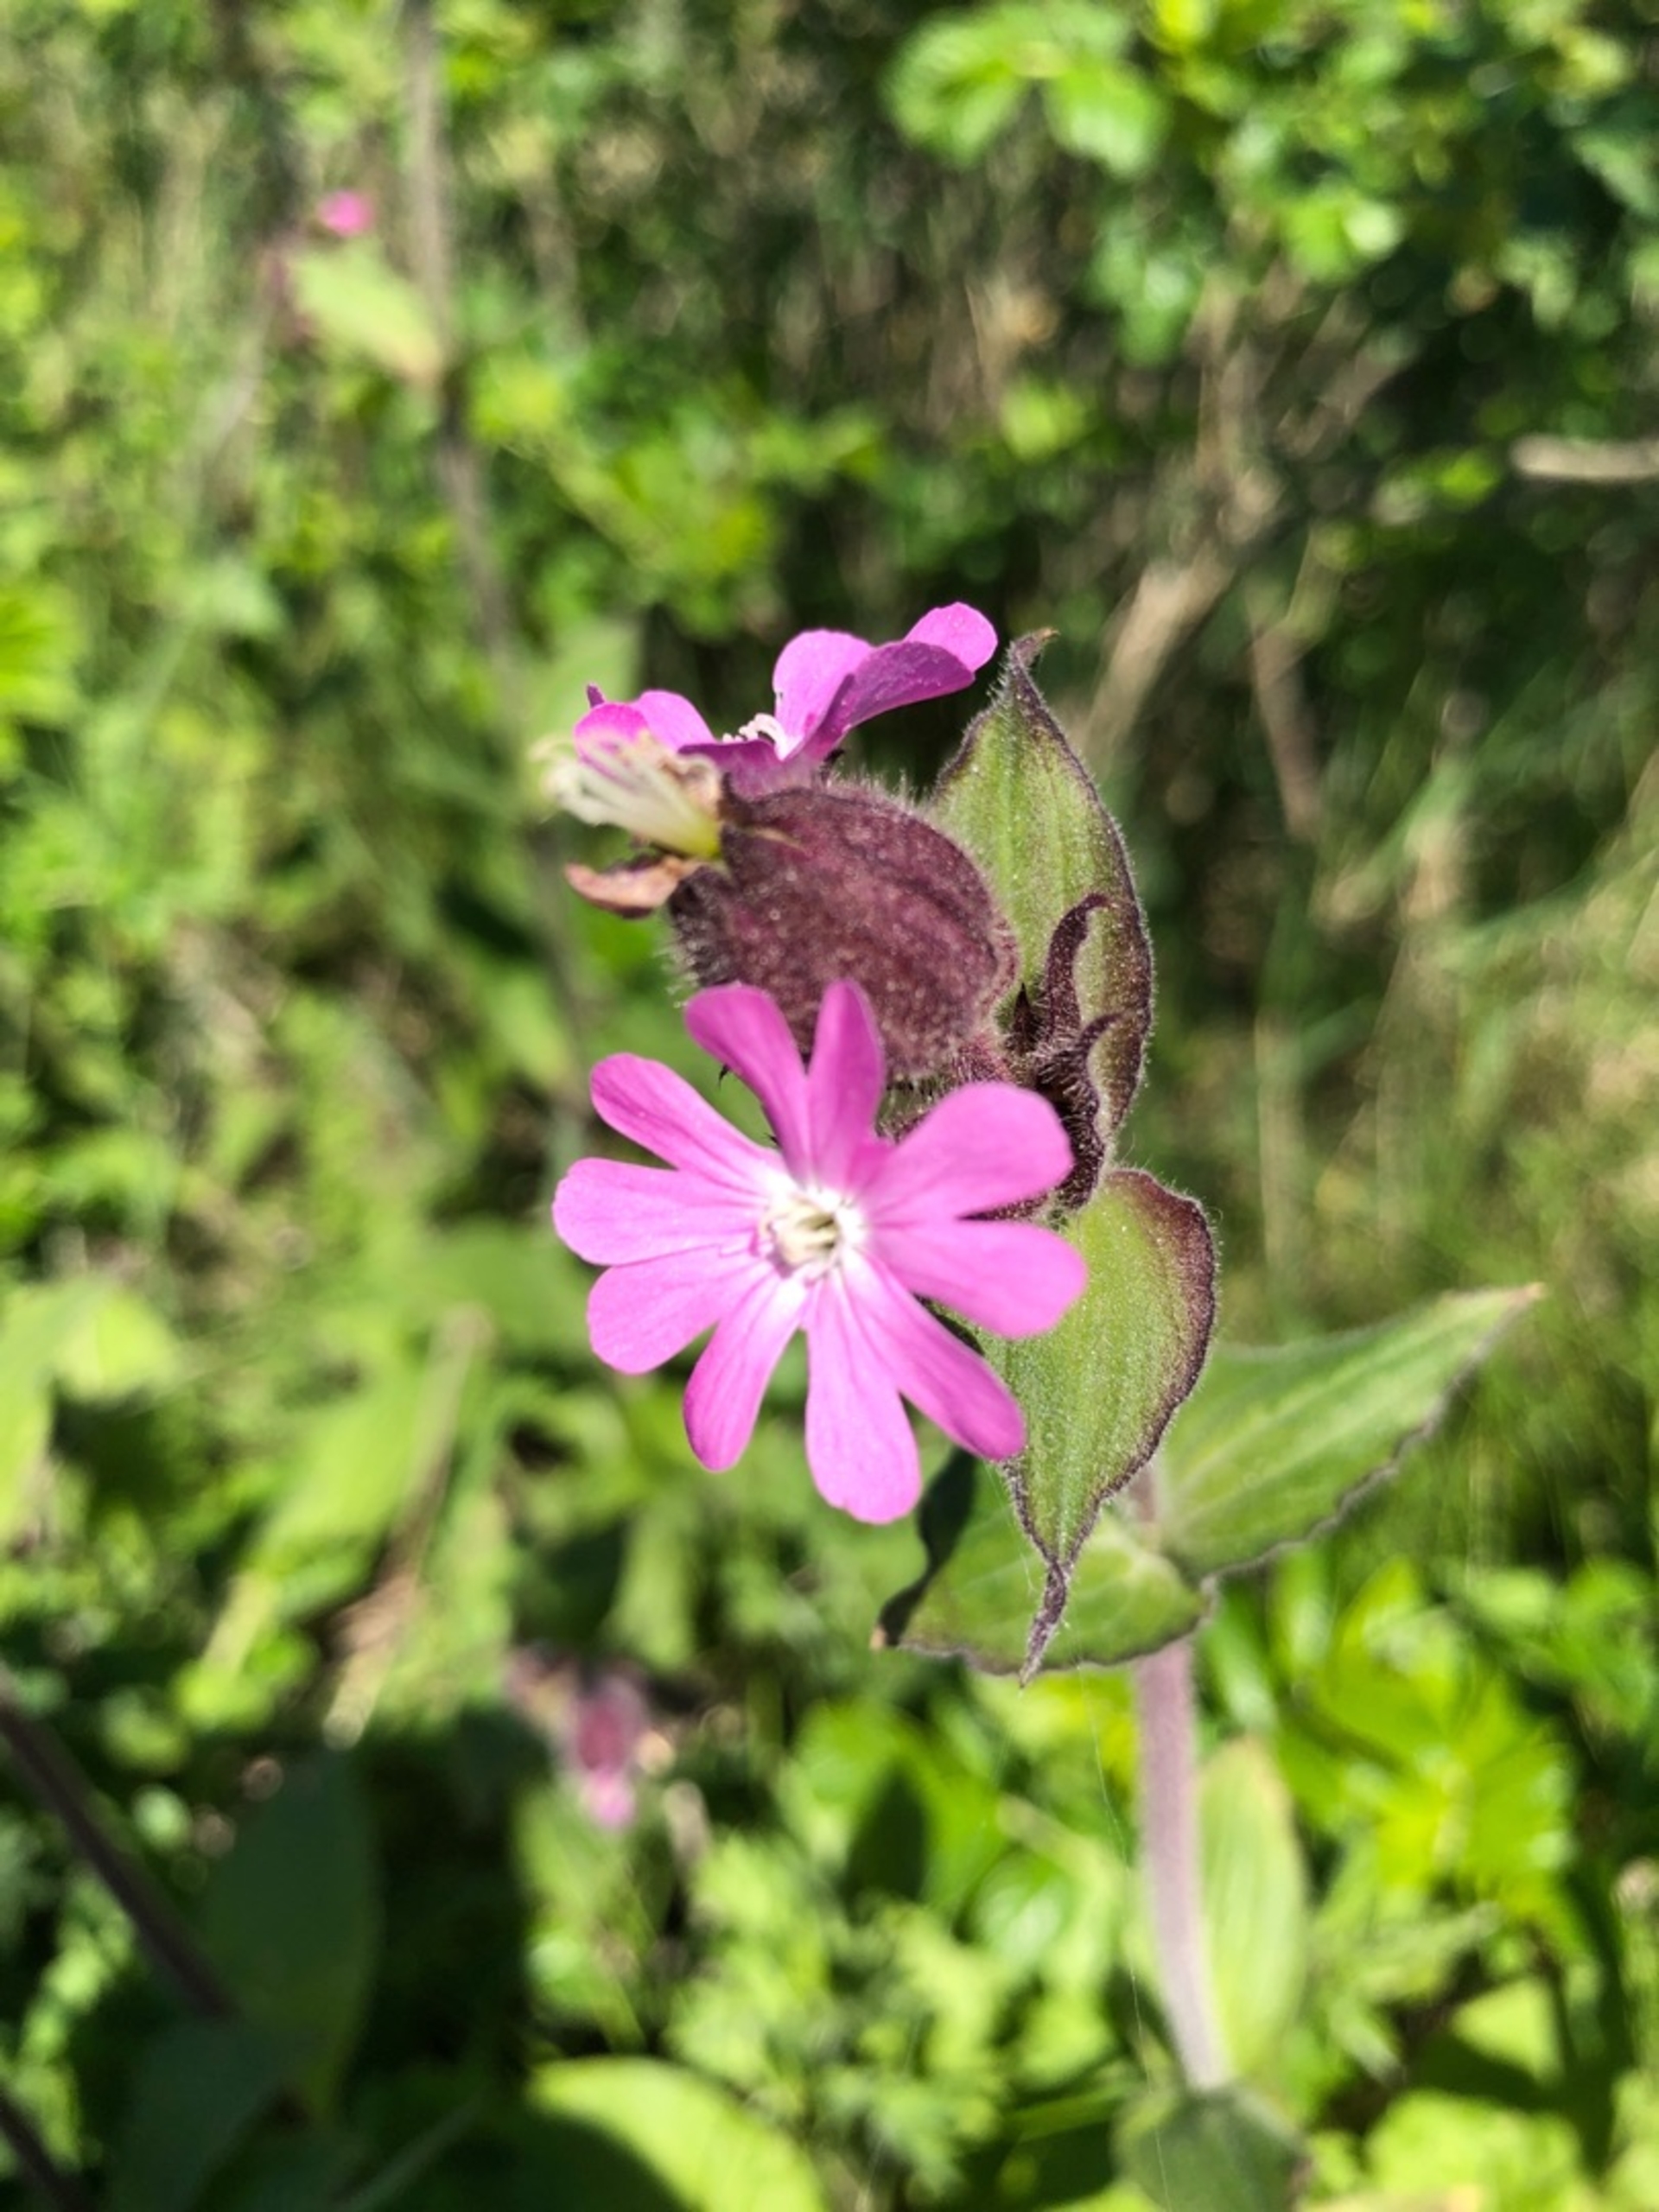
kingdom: Plantae
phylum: Tracheophyta
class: Magnoliopsida
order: Caryophyllales
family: Caryophyllaceae
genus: Silene
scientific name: Silene dioica
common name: Dagpragtstjerne
